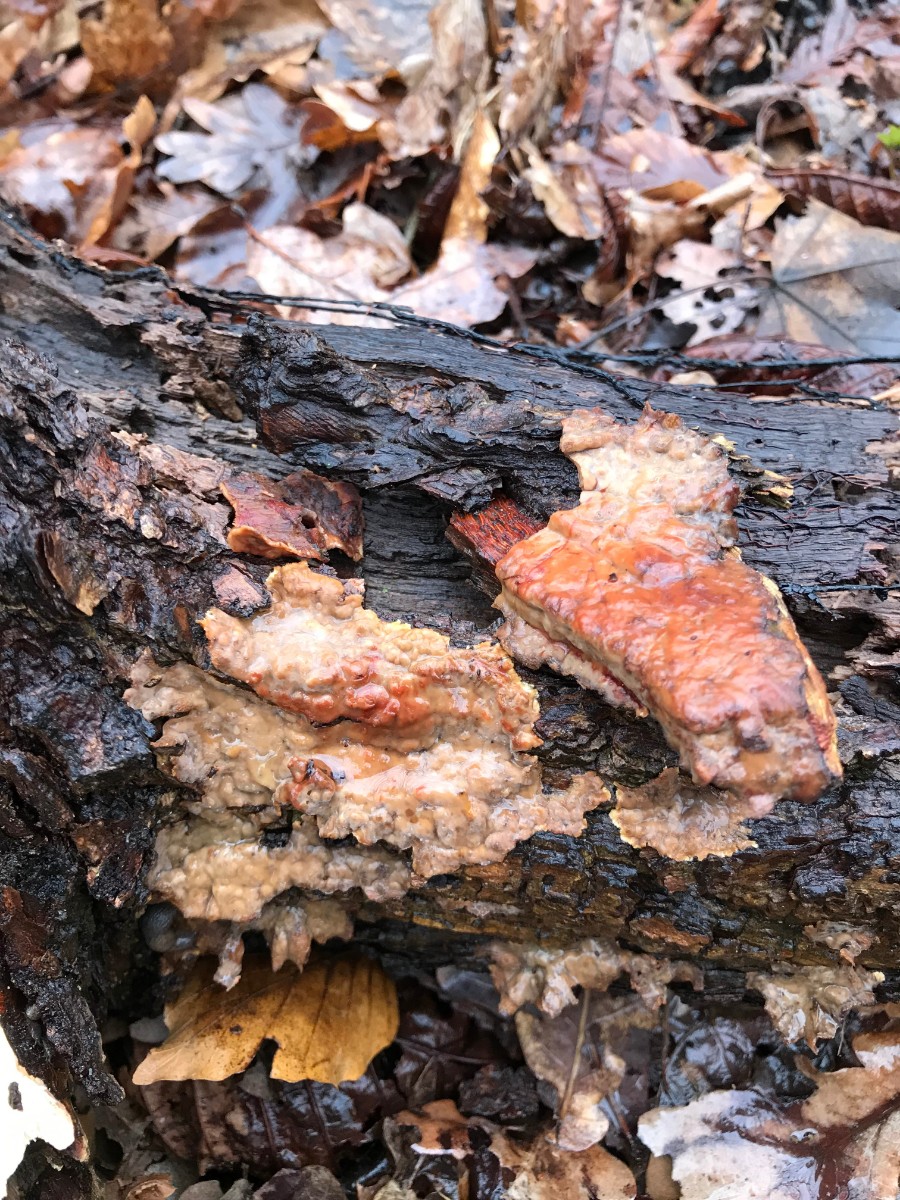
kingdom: Fungi
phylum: Basidiomycota
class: Agaricomycetes
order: Russulales
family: Stereaceae
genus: Stereum
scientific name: Stereum gausapatum
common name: tynd lædersvamp
